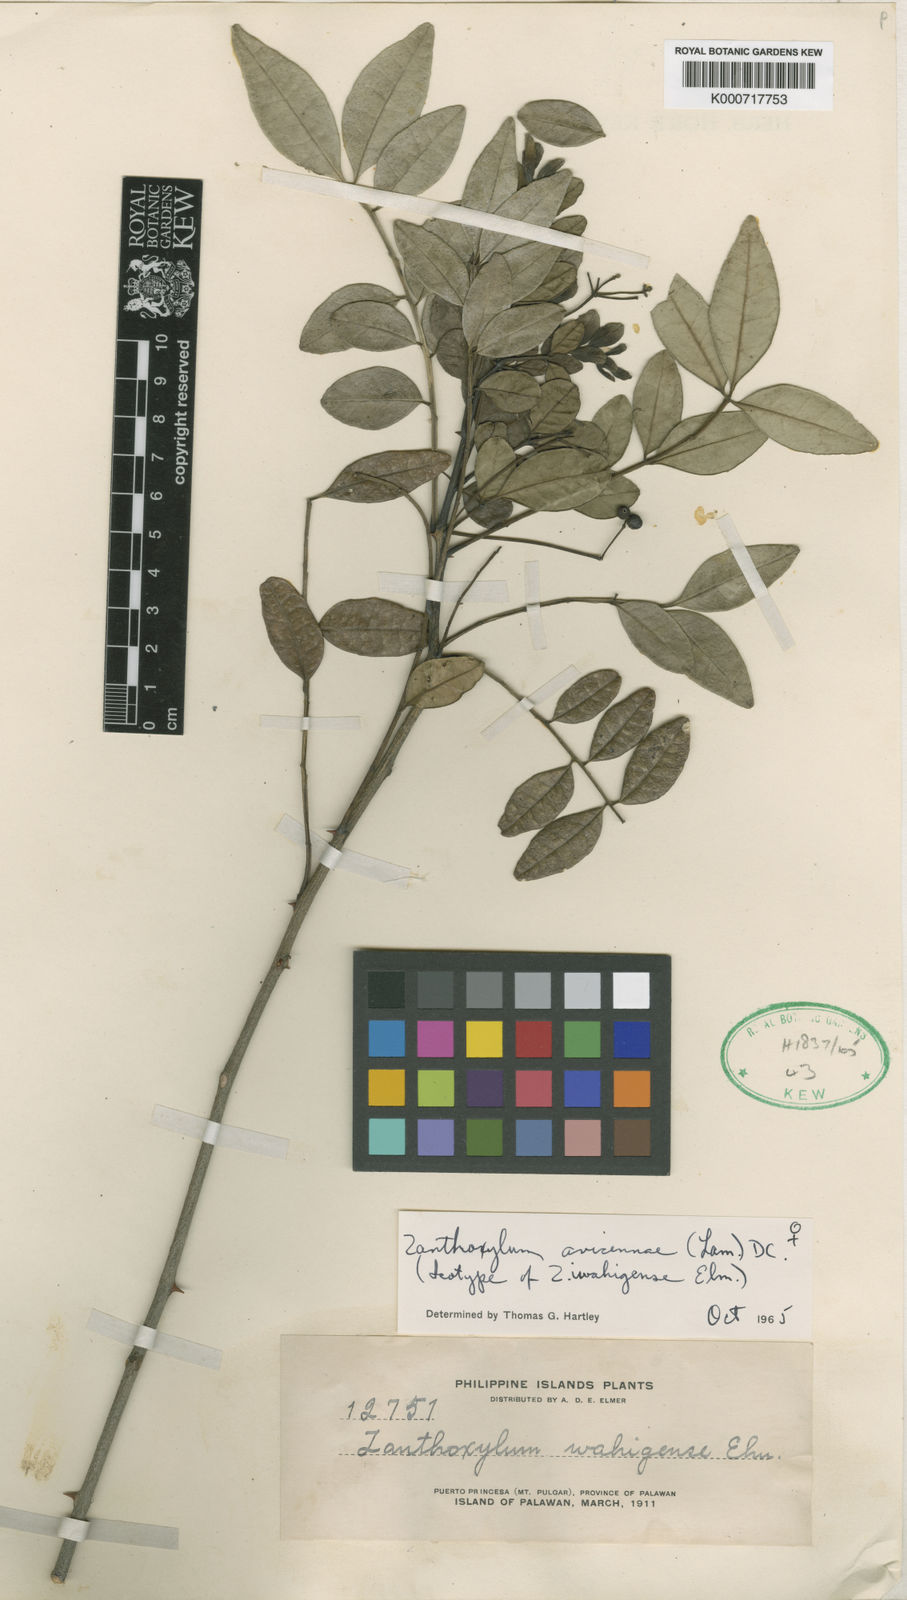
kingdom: Plantae
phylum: Tracheophyta
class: Magnoliopsida
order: Sapindales
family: Rutaceae
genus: Zanthoxylum
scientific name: Zanthoxylum avicennae
